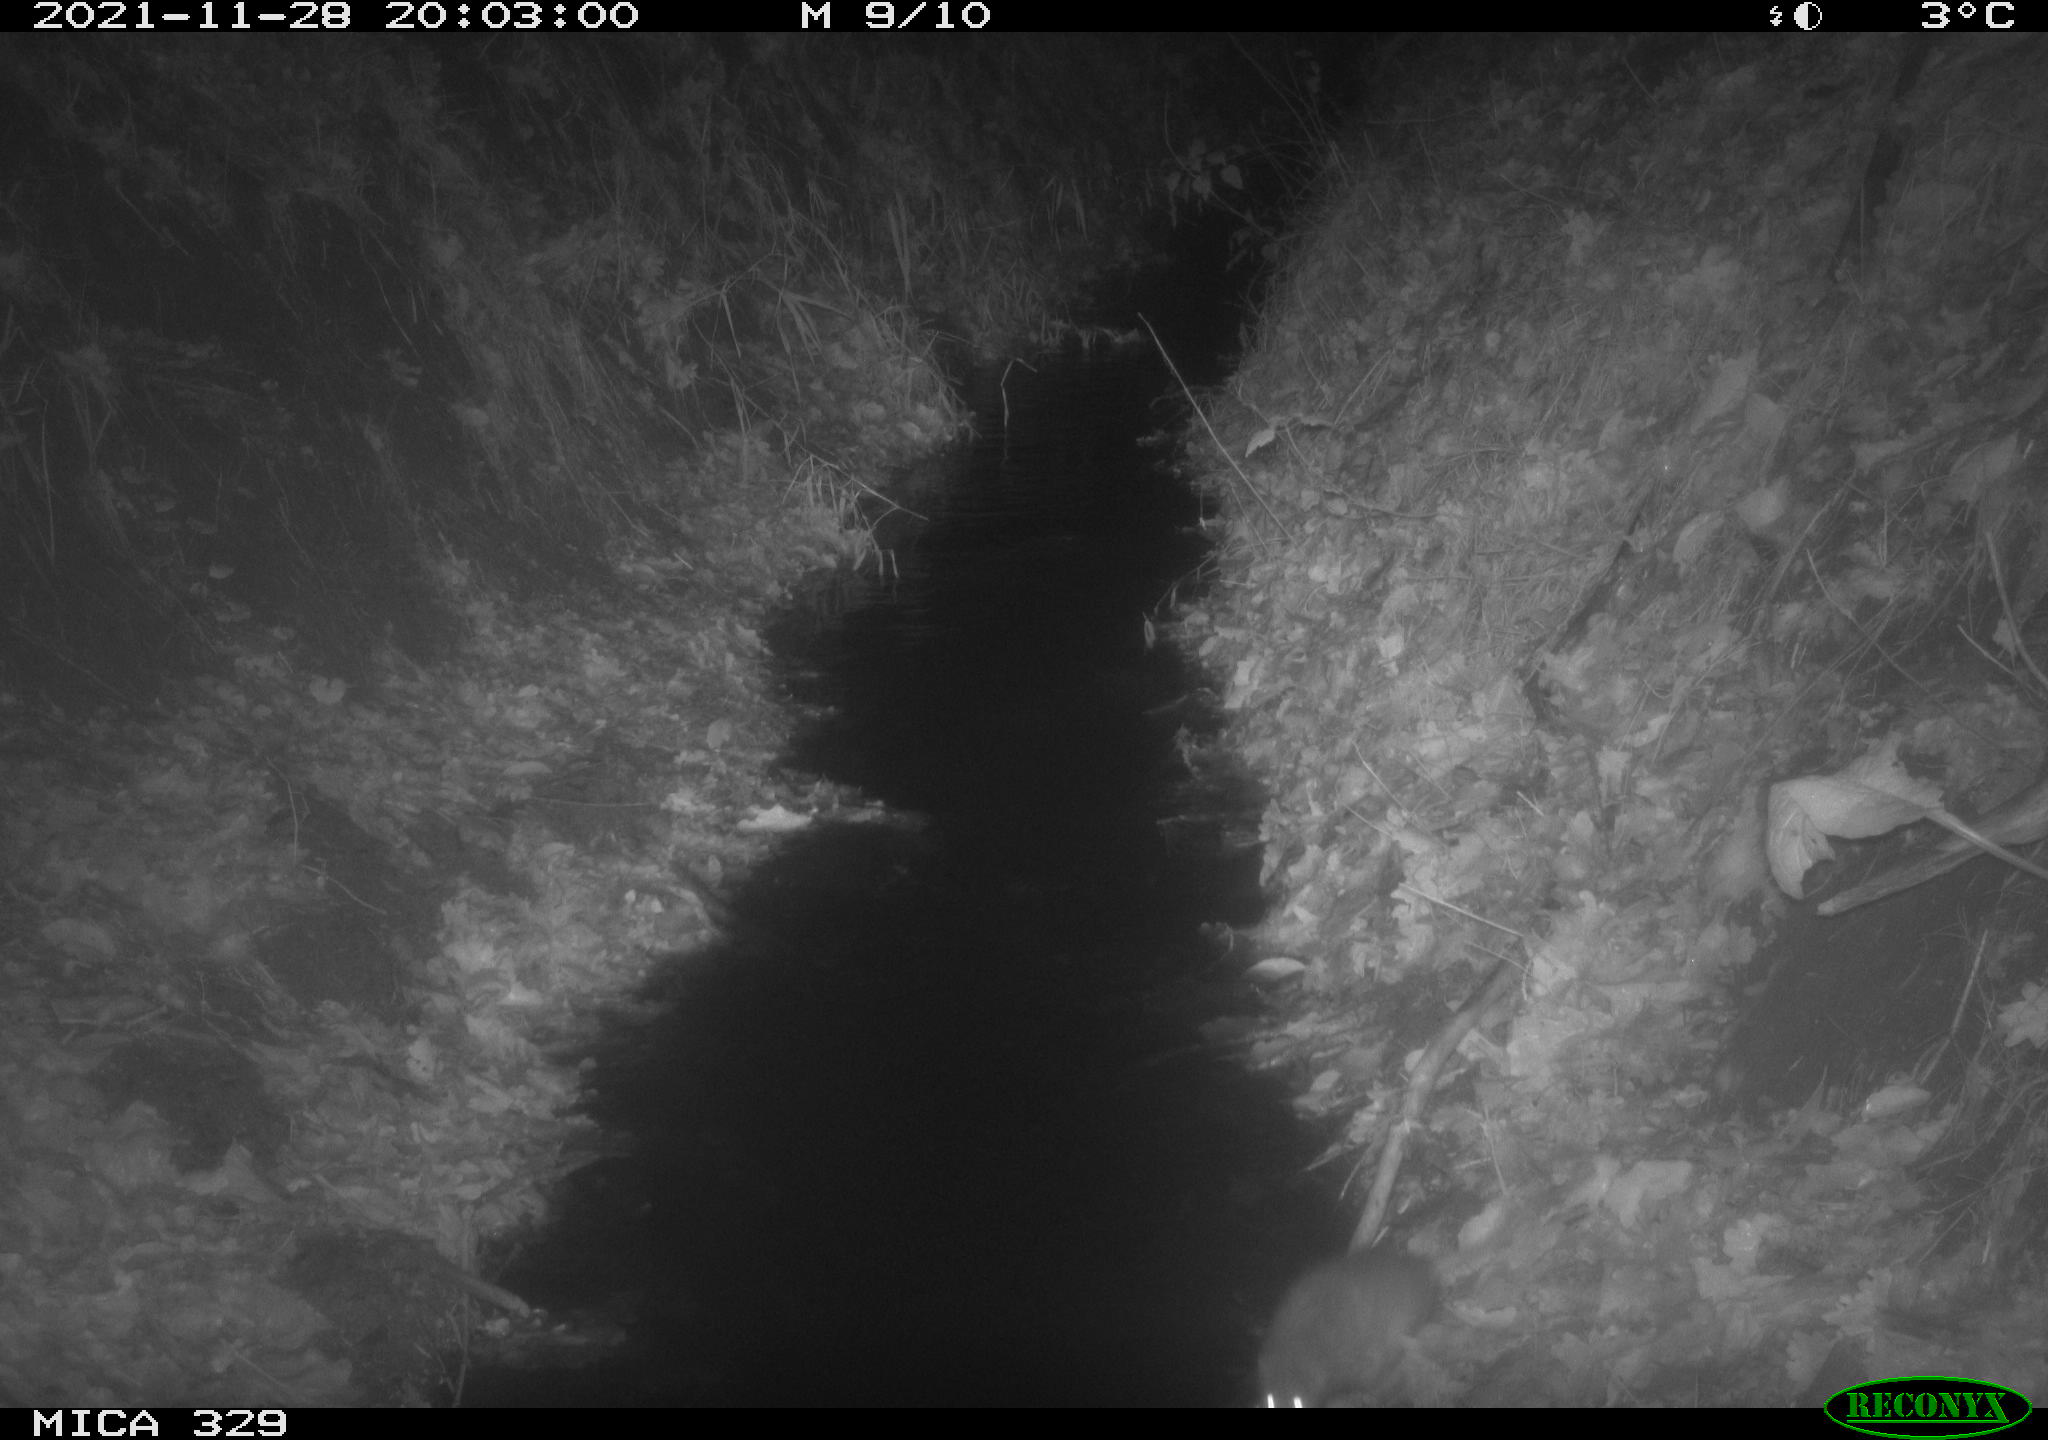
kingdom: Animalia
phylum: Chordata
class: Mammalia
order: Rodentia
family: Muridae
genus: Rattus
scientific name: Rattus norvegicus
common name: Brown rat
